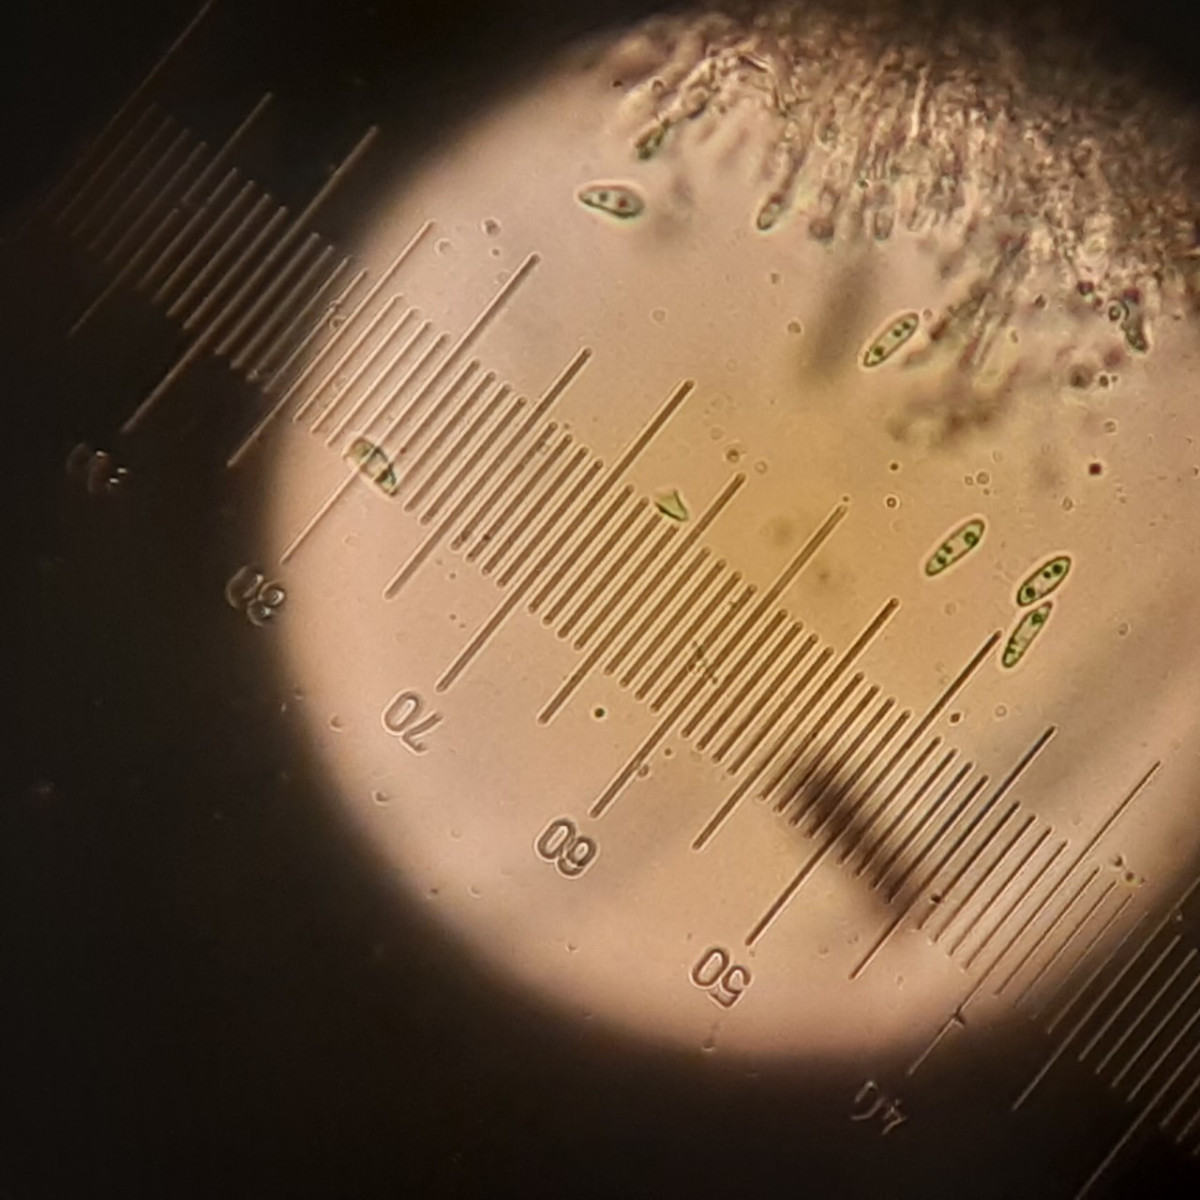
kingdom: Fungi
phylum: Ascomycota
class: Leotiomycetes
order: Helotiales
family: Cenangiaceae
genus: Trochila
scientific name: Trochila laurocerasi
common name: kirsebær-lågskive
